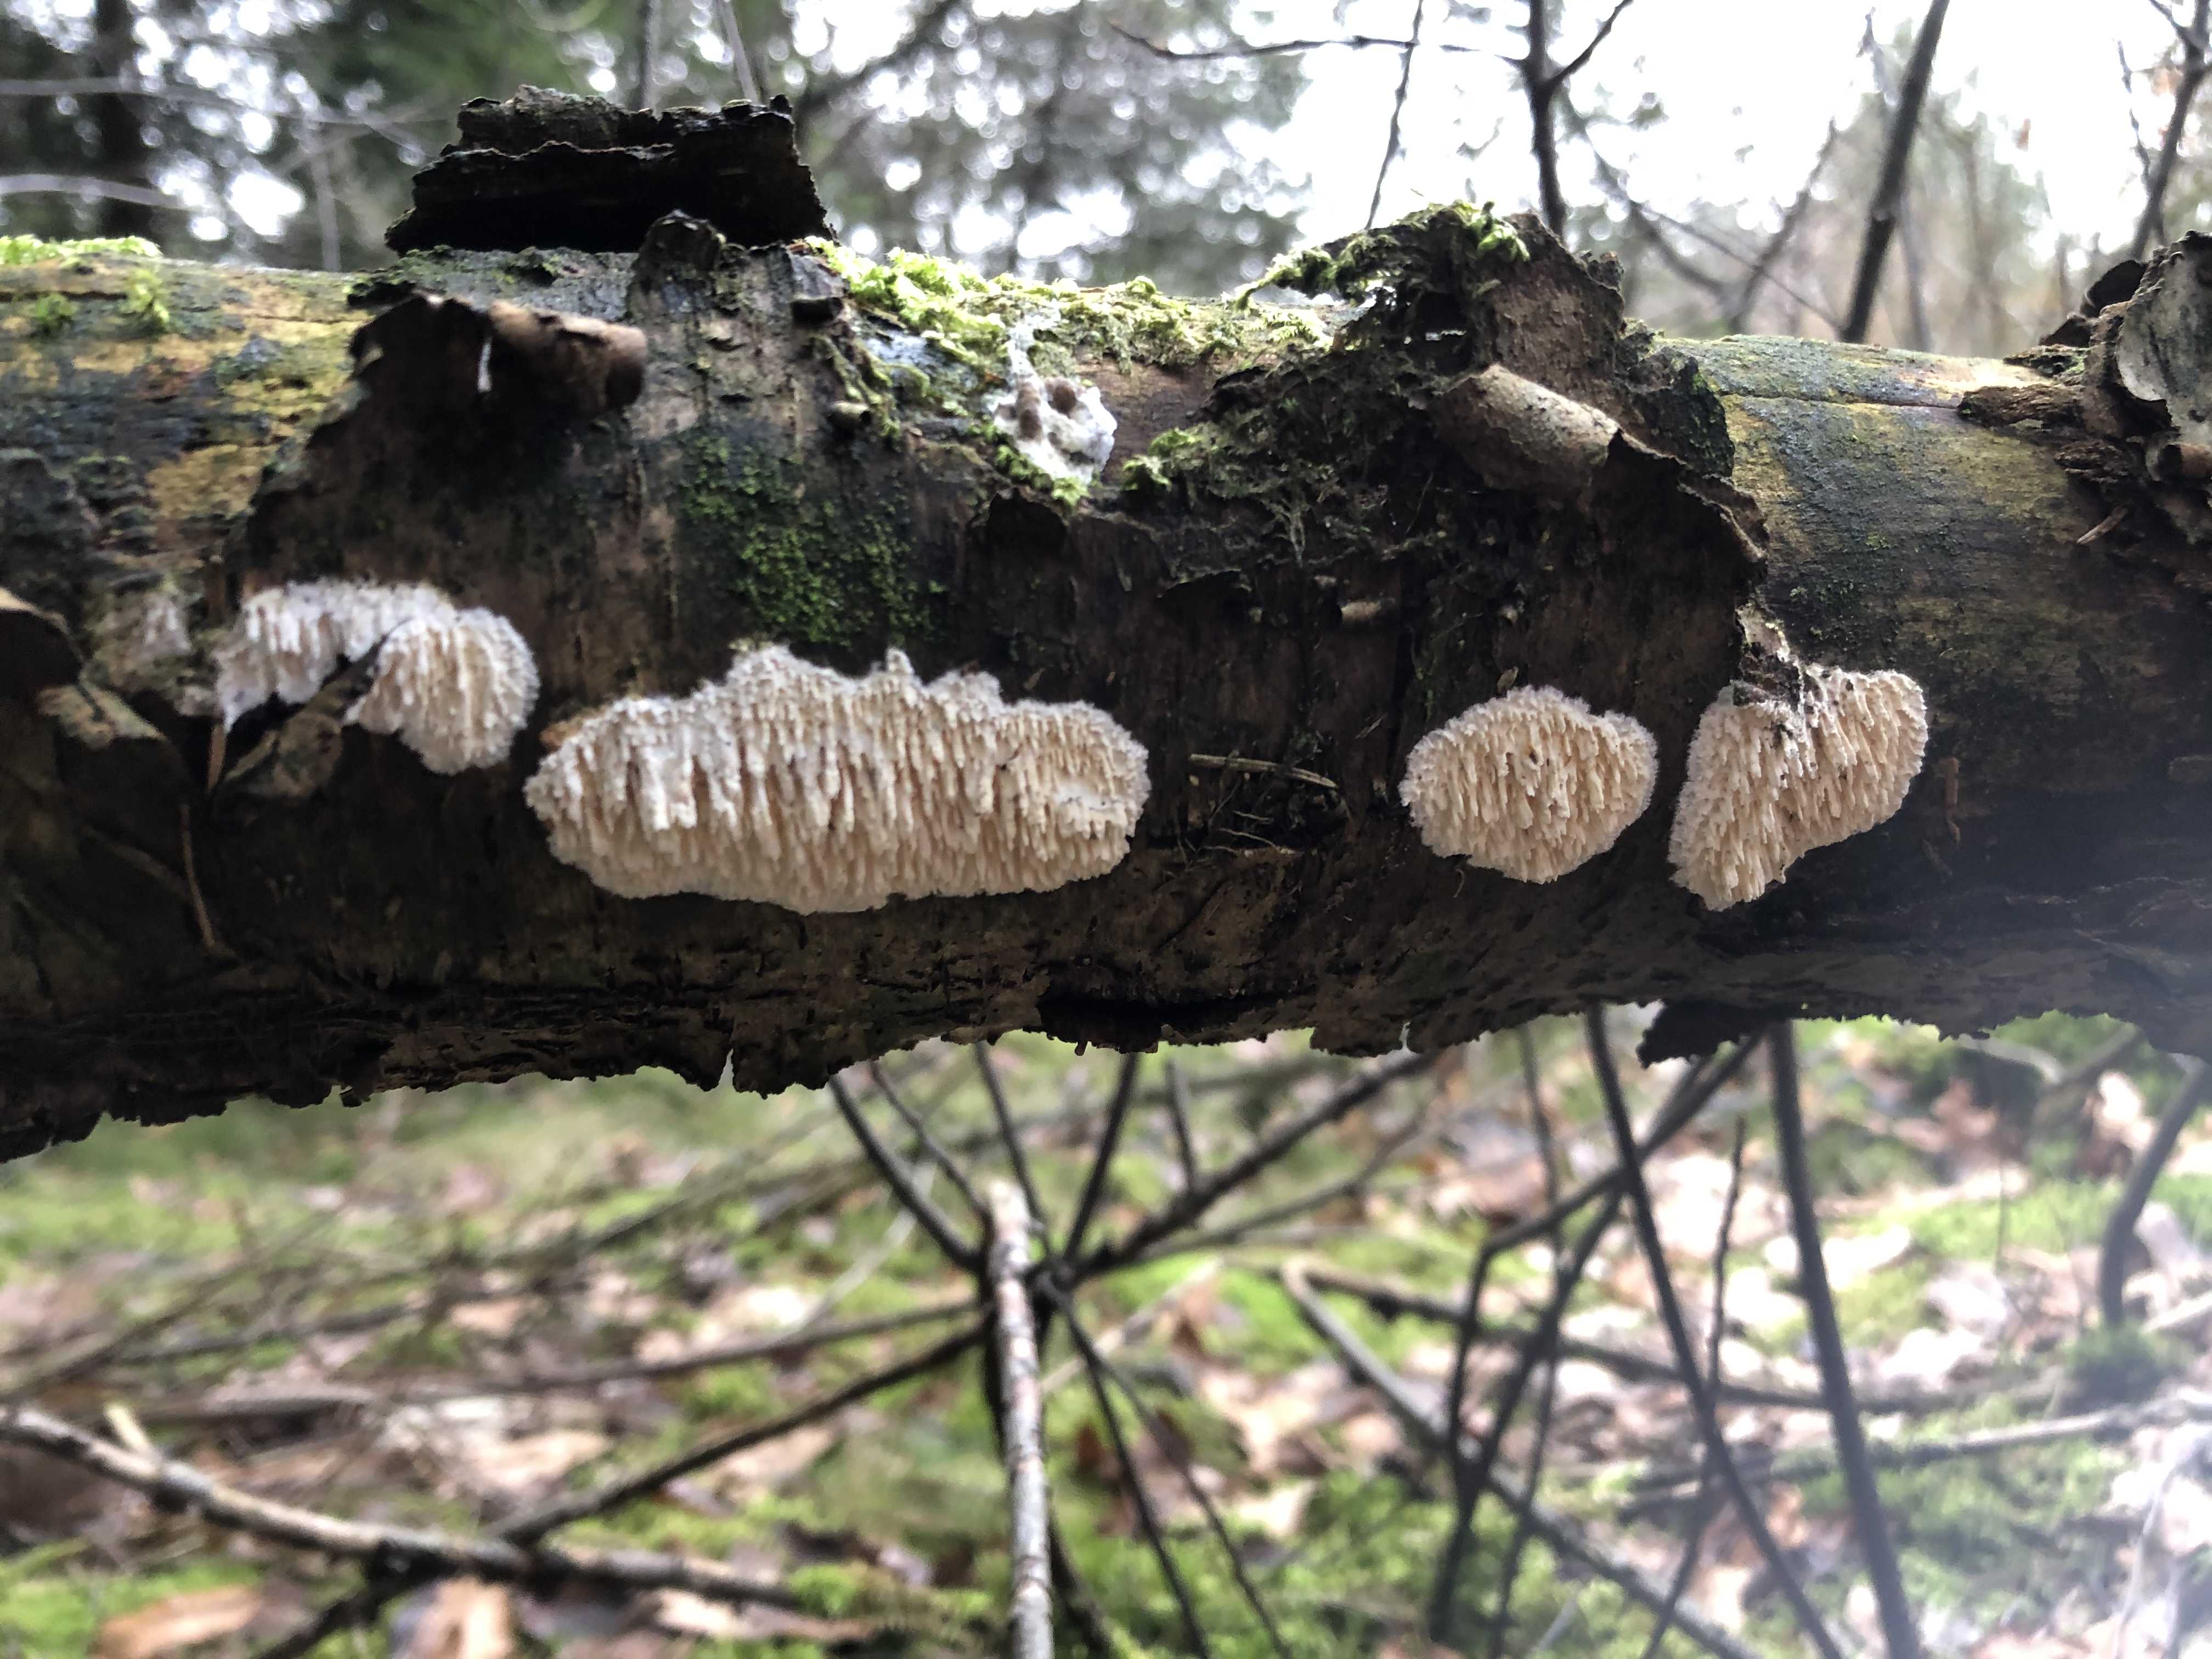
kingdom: Fungi
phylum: Basidiomycota
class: Agaricomycetes
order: Hymenochaetales
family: Schizoporaceae
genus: Xylodon
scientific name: Xylodon radula
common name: grovtandet kalkskind
